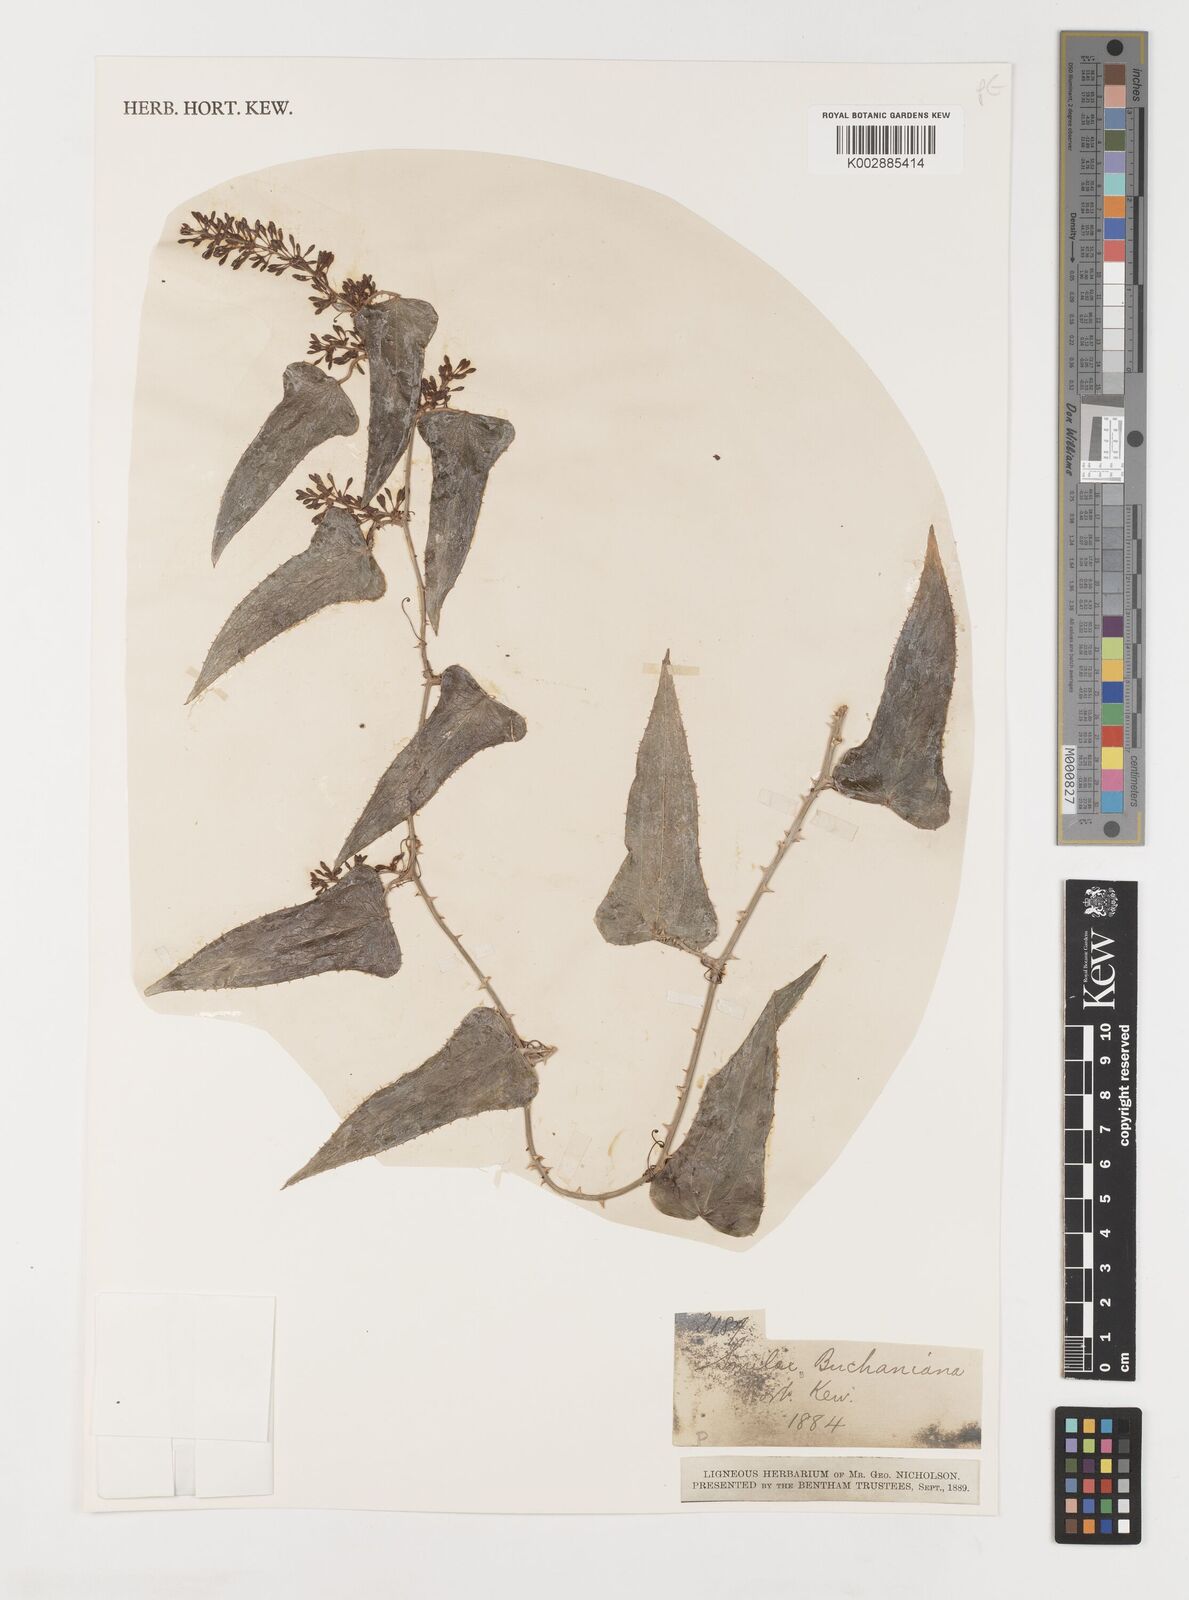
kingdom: Plantae
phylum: Tracheophyta
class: Liliopsida
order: Liliales
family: Smilacaceae
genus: Smilax
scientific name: Smilax
